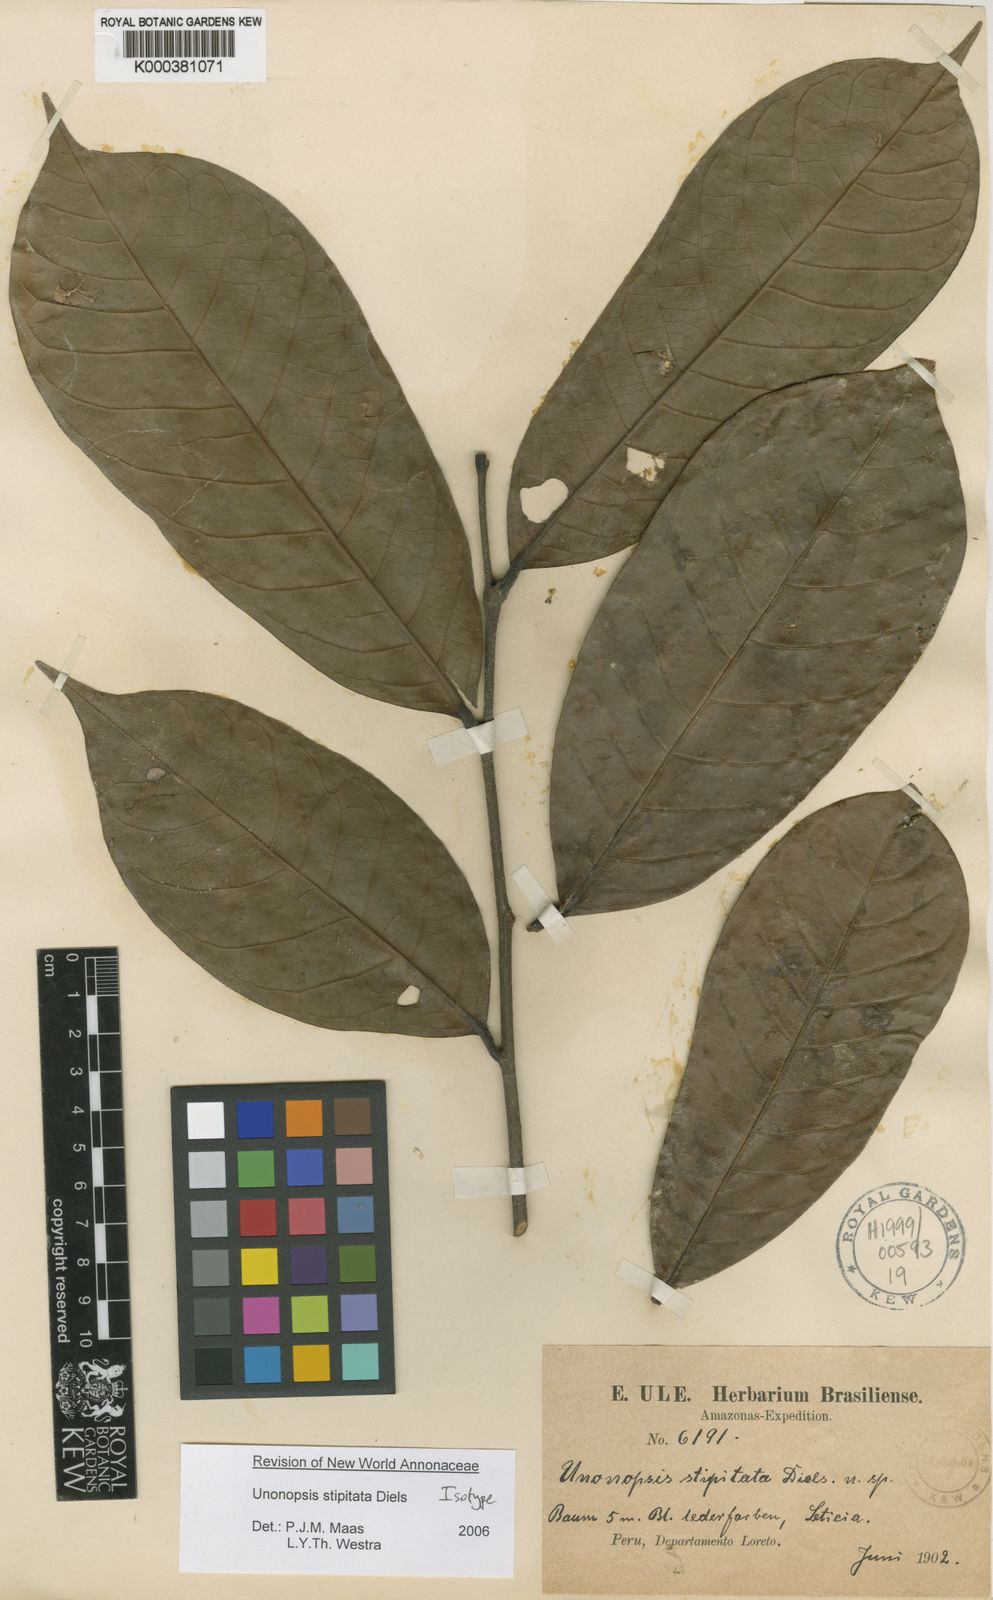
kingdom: Plantae
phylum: Tracheophyta
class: Magnoliopsida
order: Magnoliales
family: Annonaceae
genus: Unonopsis
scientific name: Unonopsis stipitata
